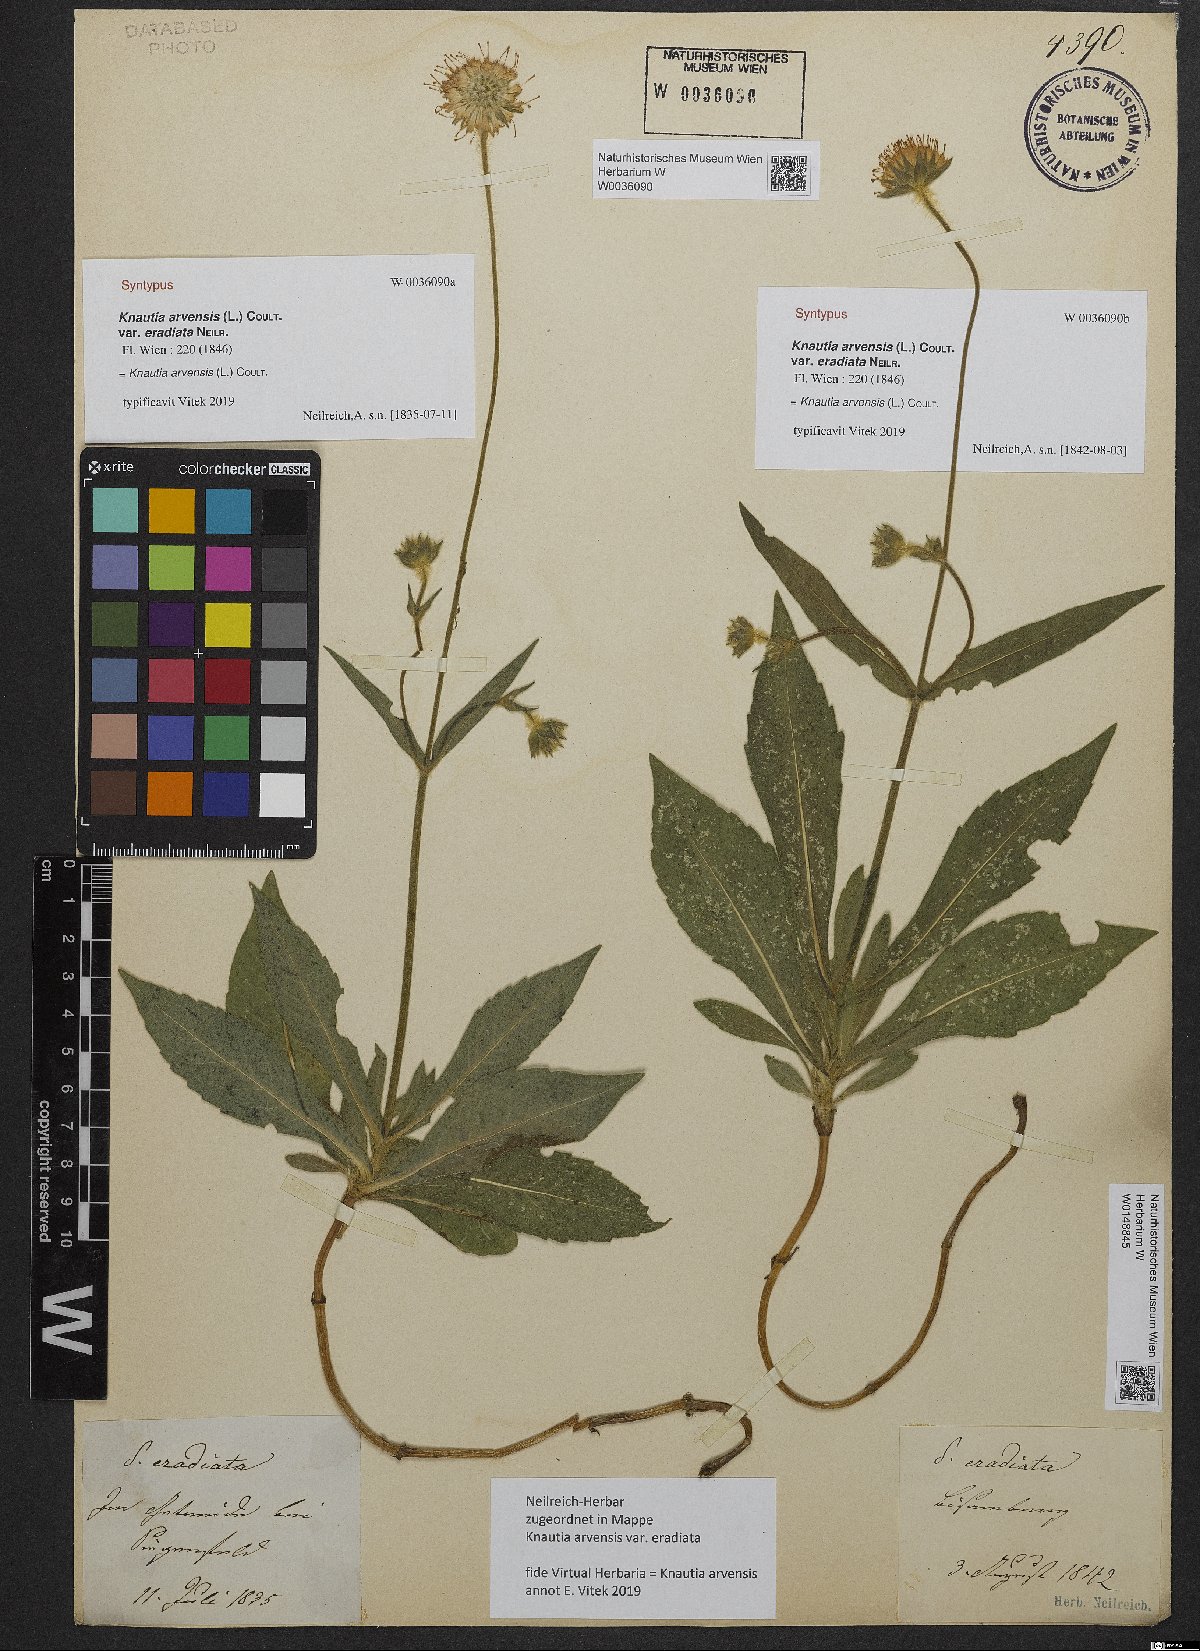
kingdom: Plantae
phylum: Tracheophyta
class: Magnoliopsida
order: Dipsacales
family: Caprifoliaceae
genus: Knautia
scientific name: Knautia arvensis
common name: Field scabiosa
